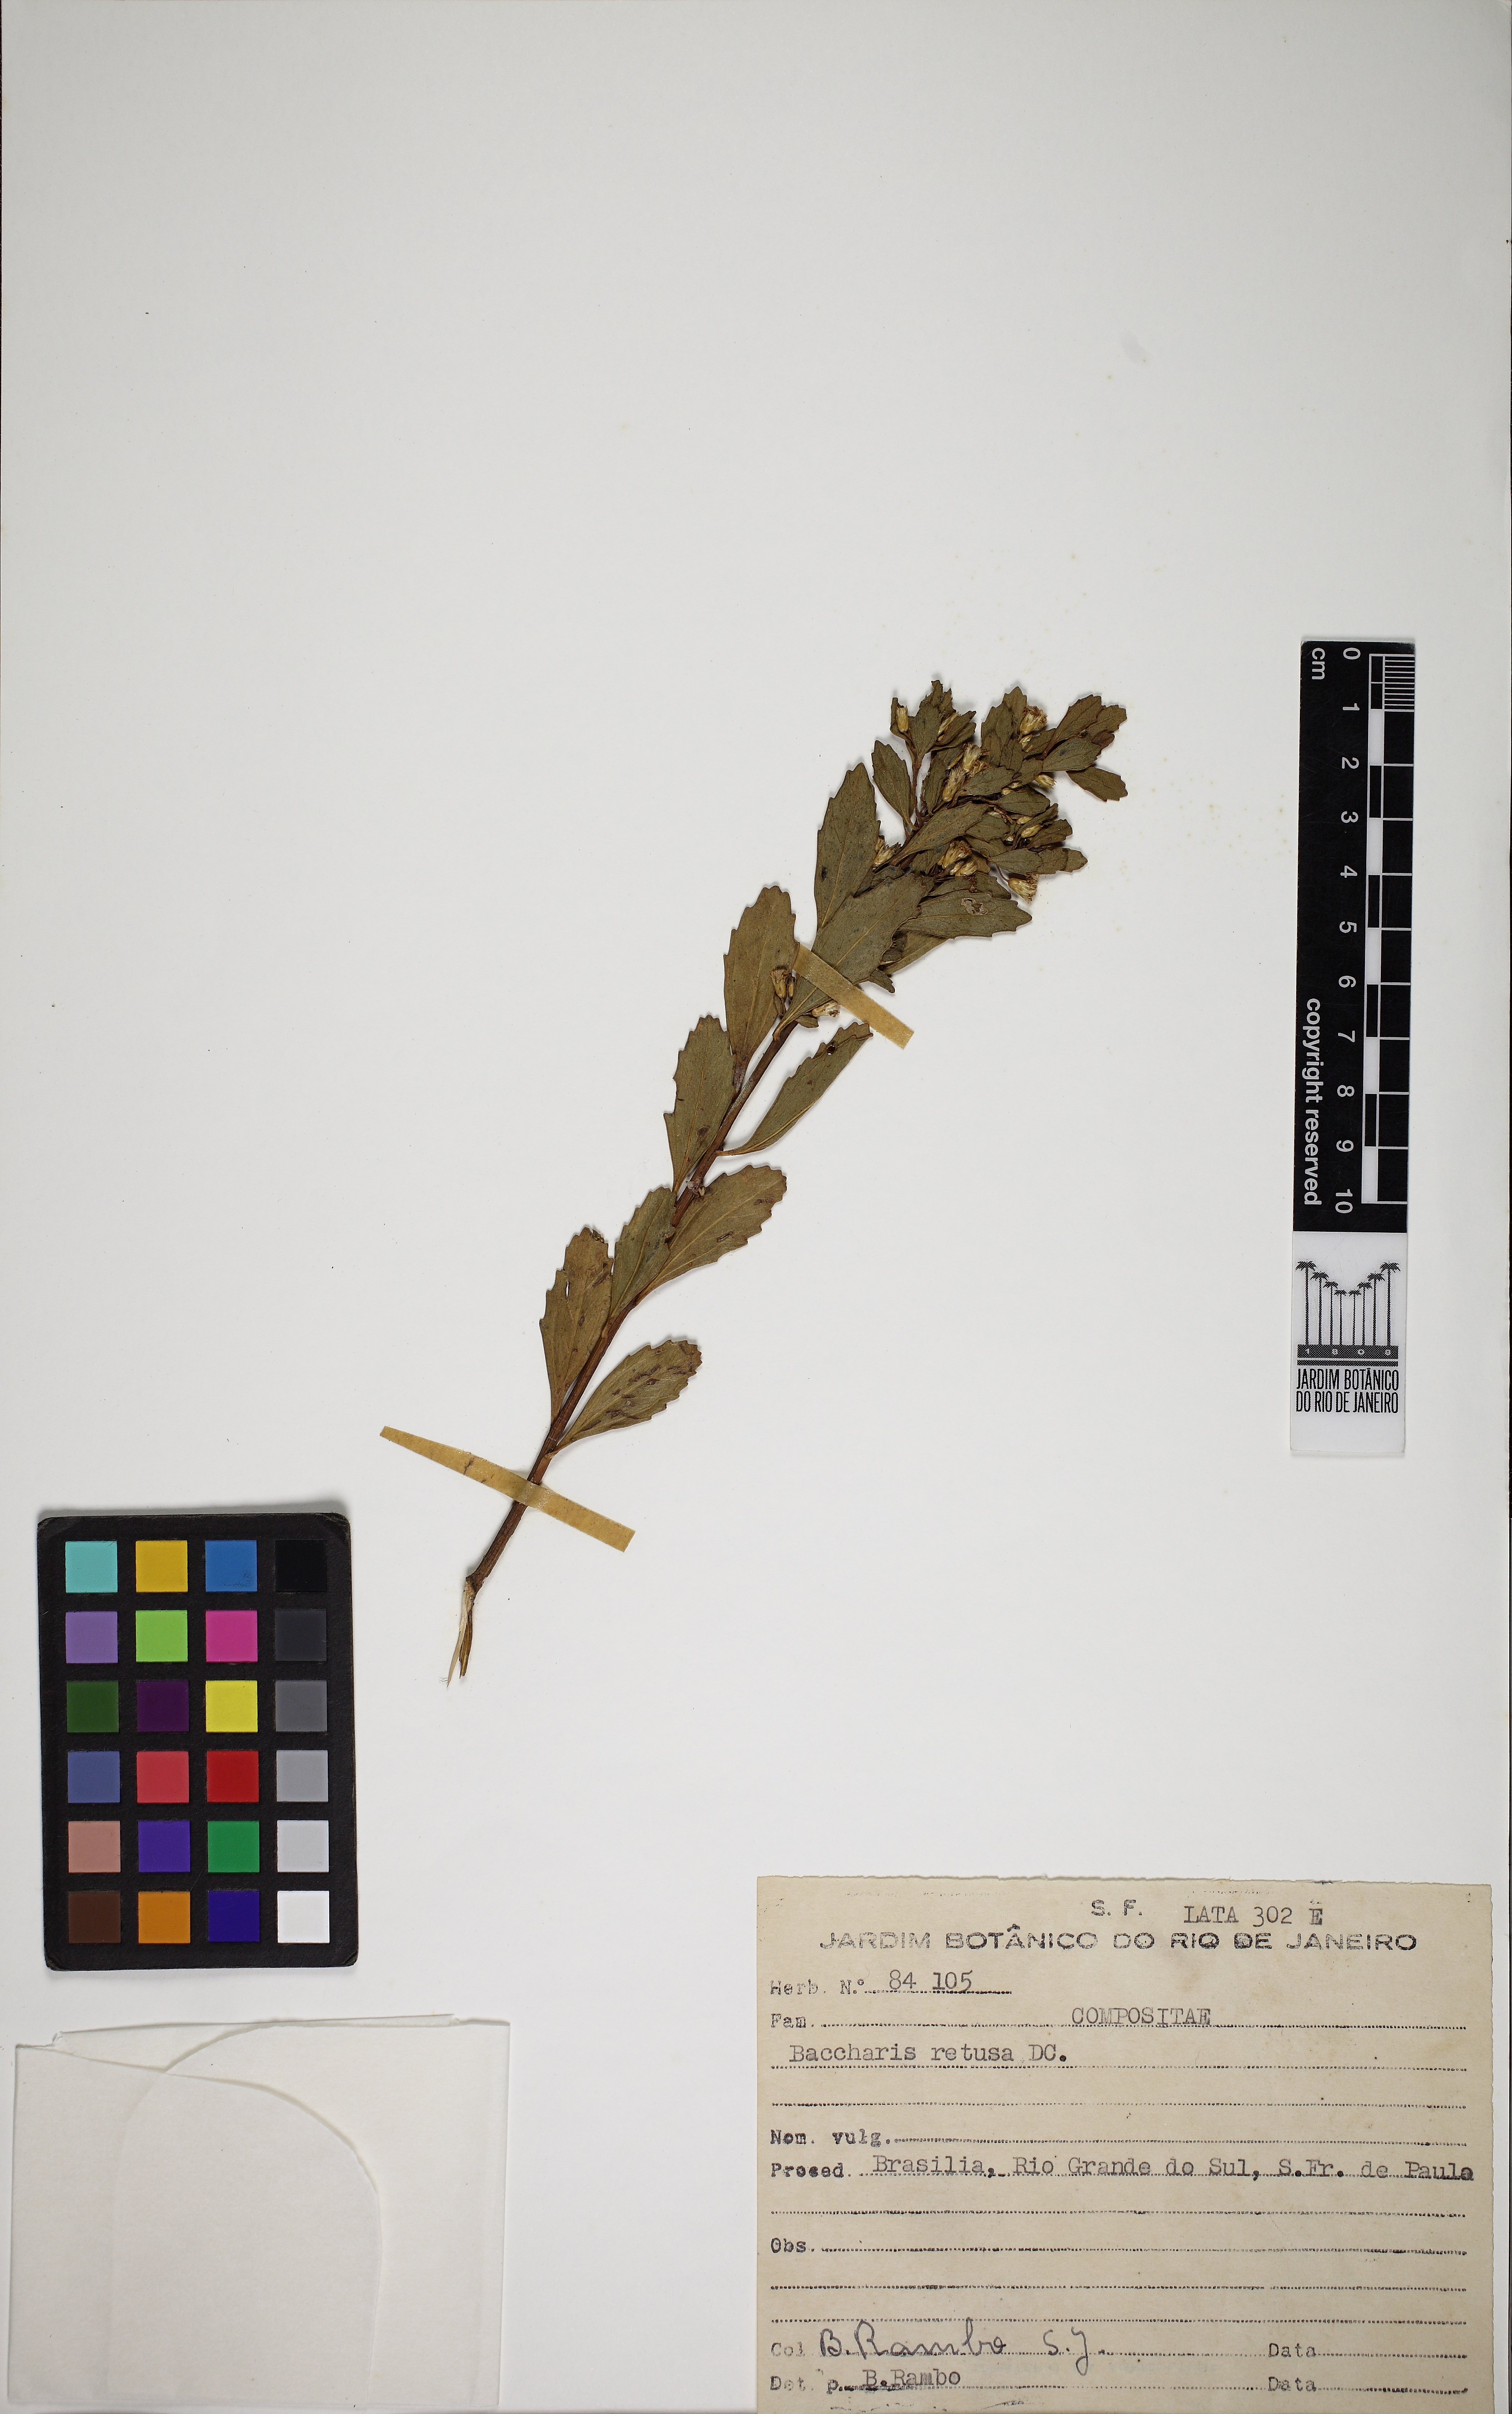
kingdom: Plantae
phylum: Tracheophyta
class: Magnoliopsida
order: Asterales
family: Asteraceae
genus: Baccharis
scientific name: Baccharis retusa
